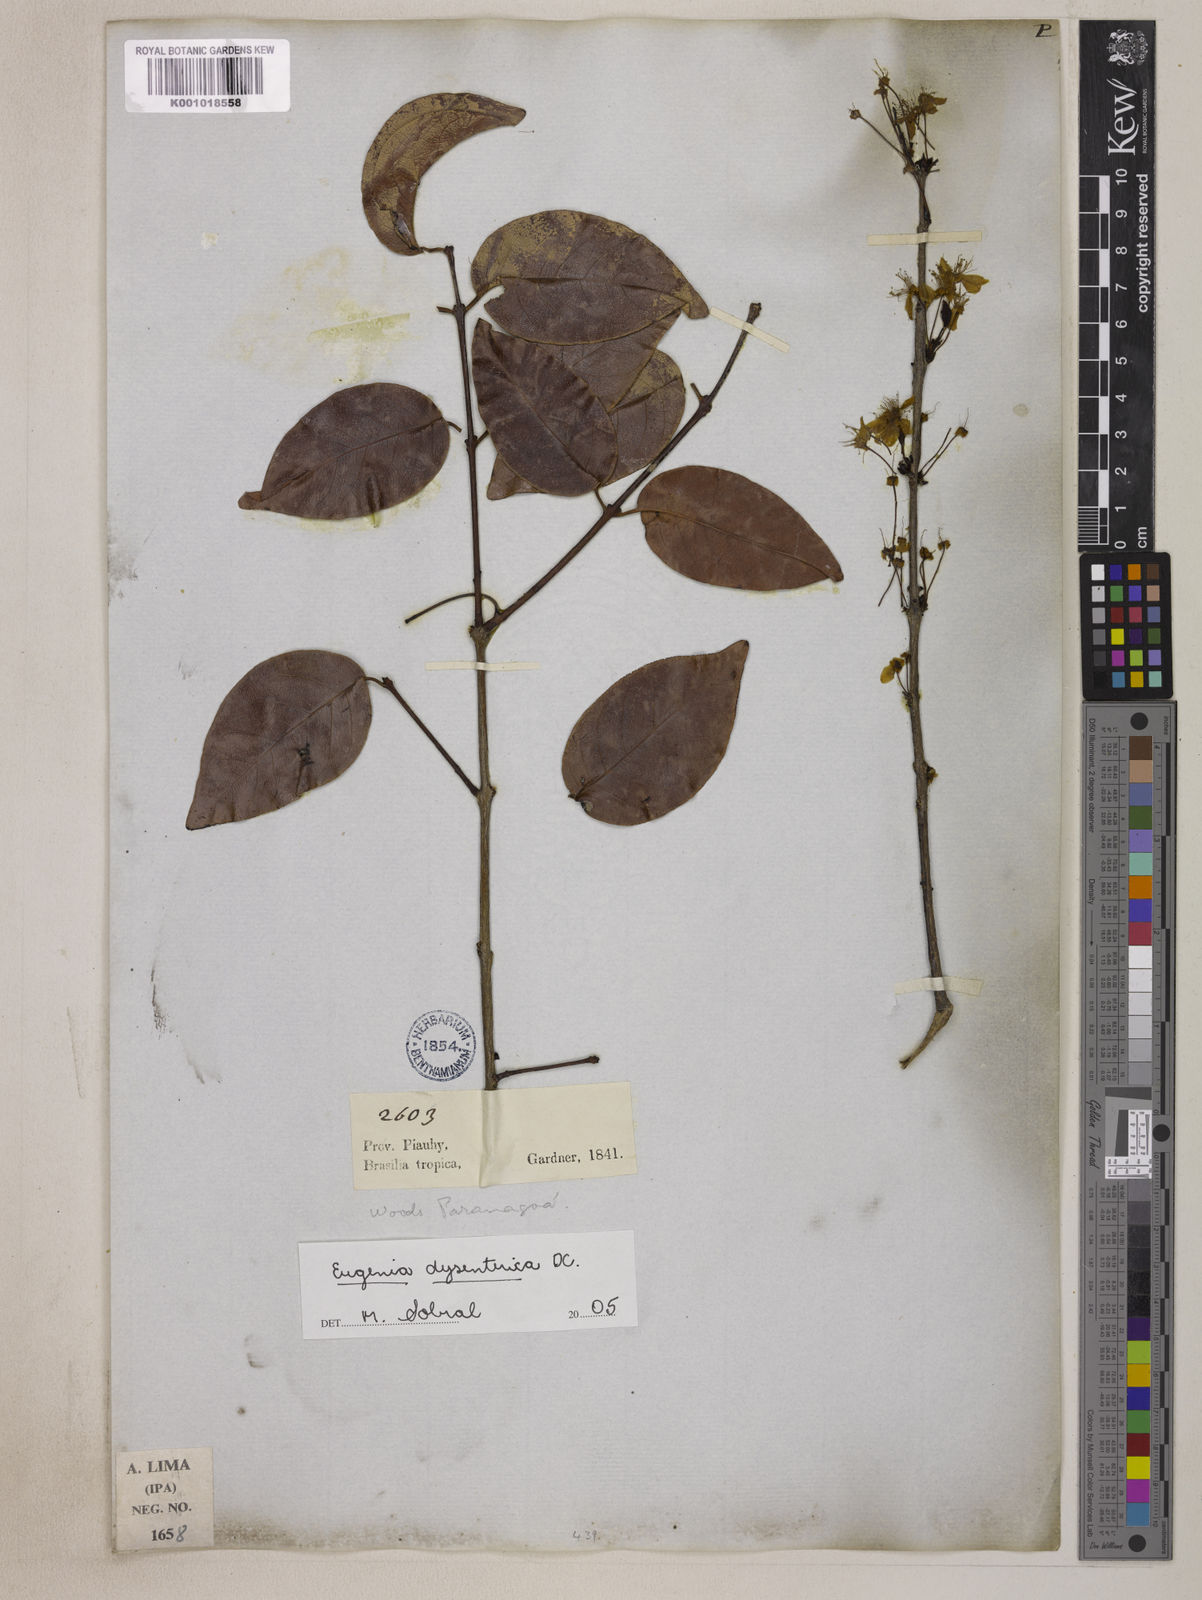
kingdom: Plantae
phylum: Tracheophyta
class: Magnoliopsida
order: Myrtales
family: Myrtaceae
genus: Eugenia
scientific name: Eugenia dysenterica
